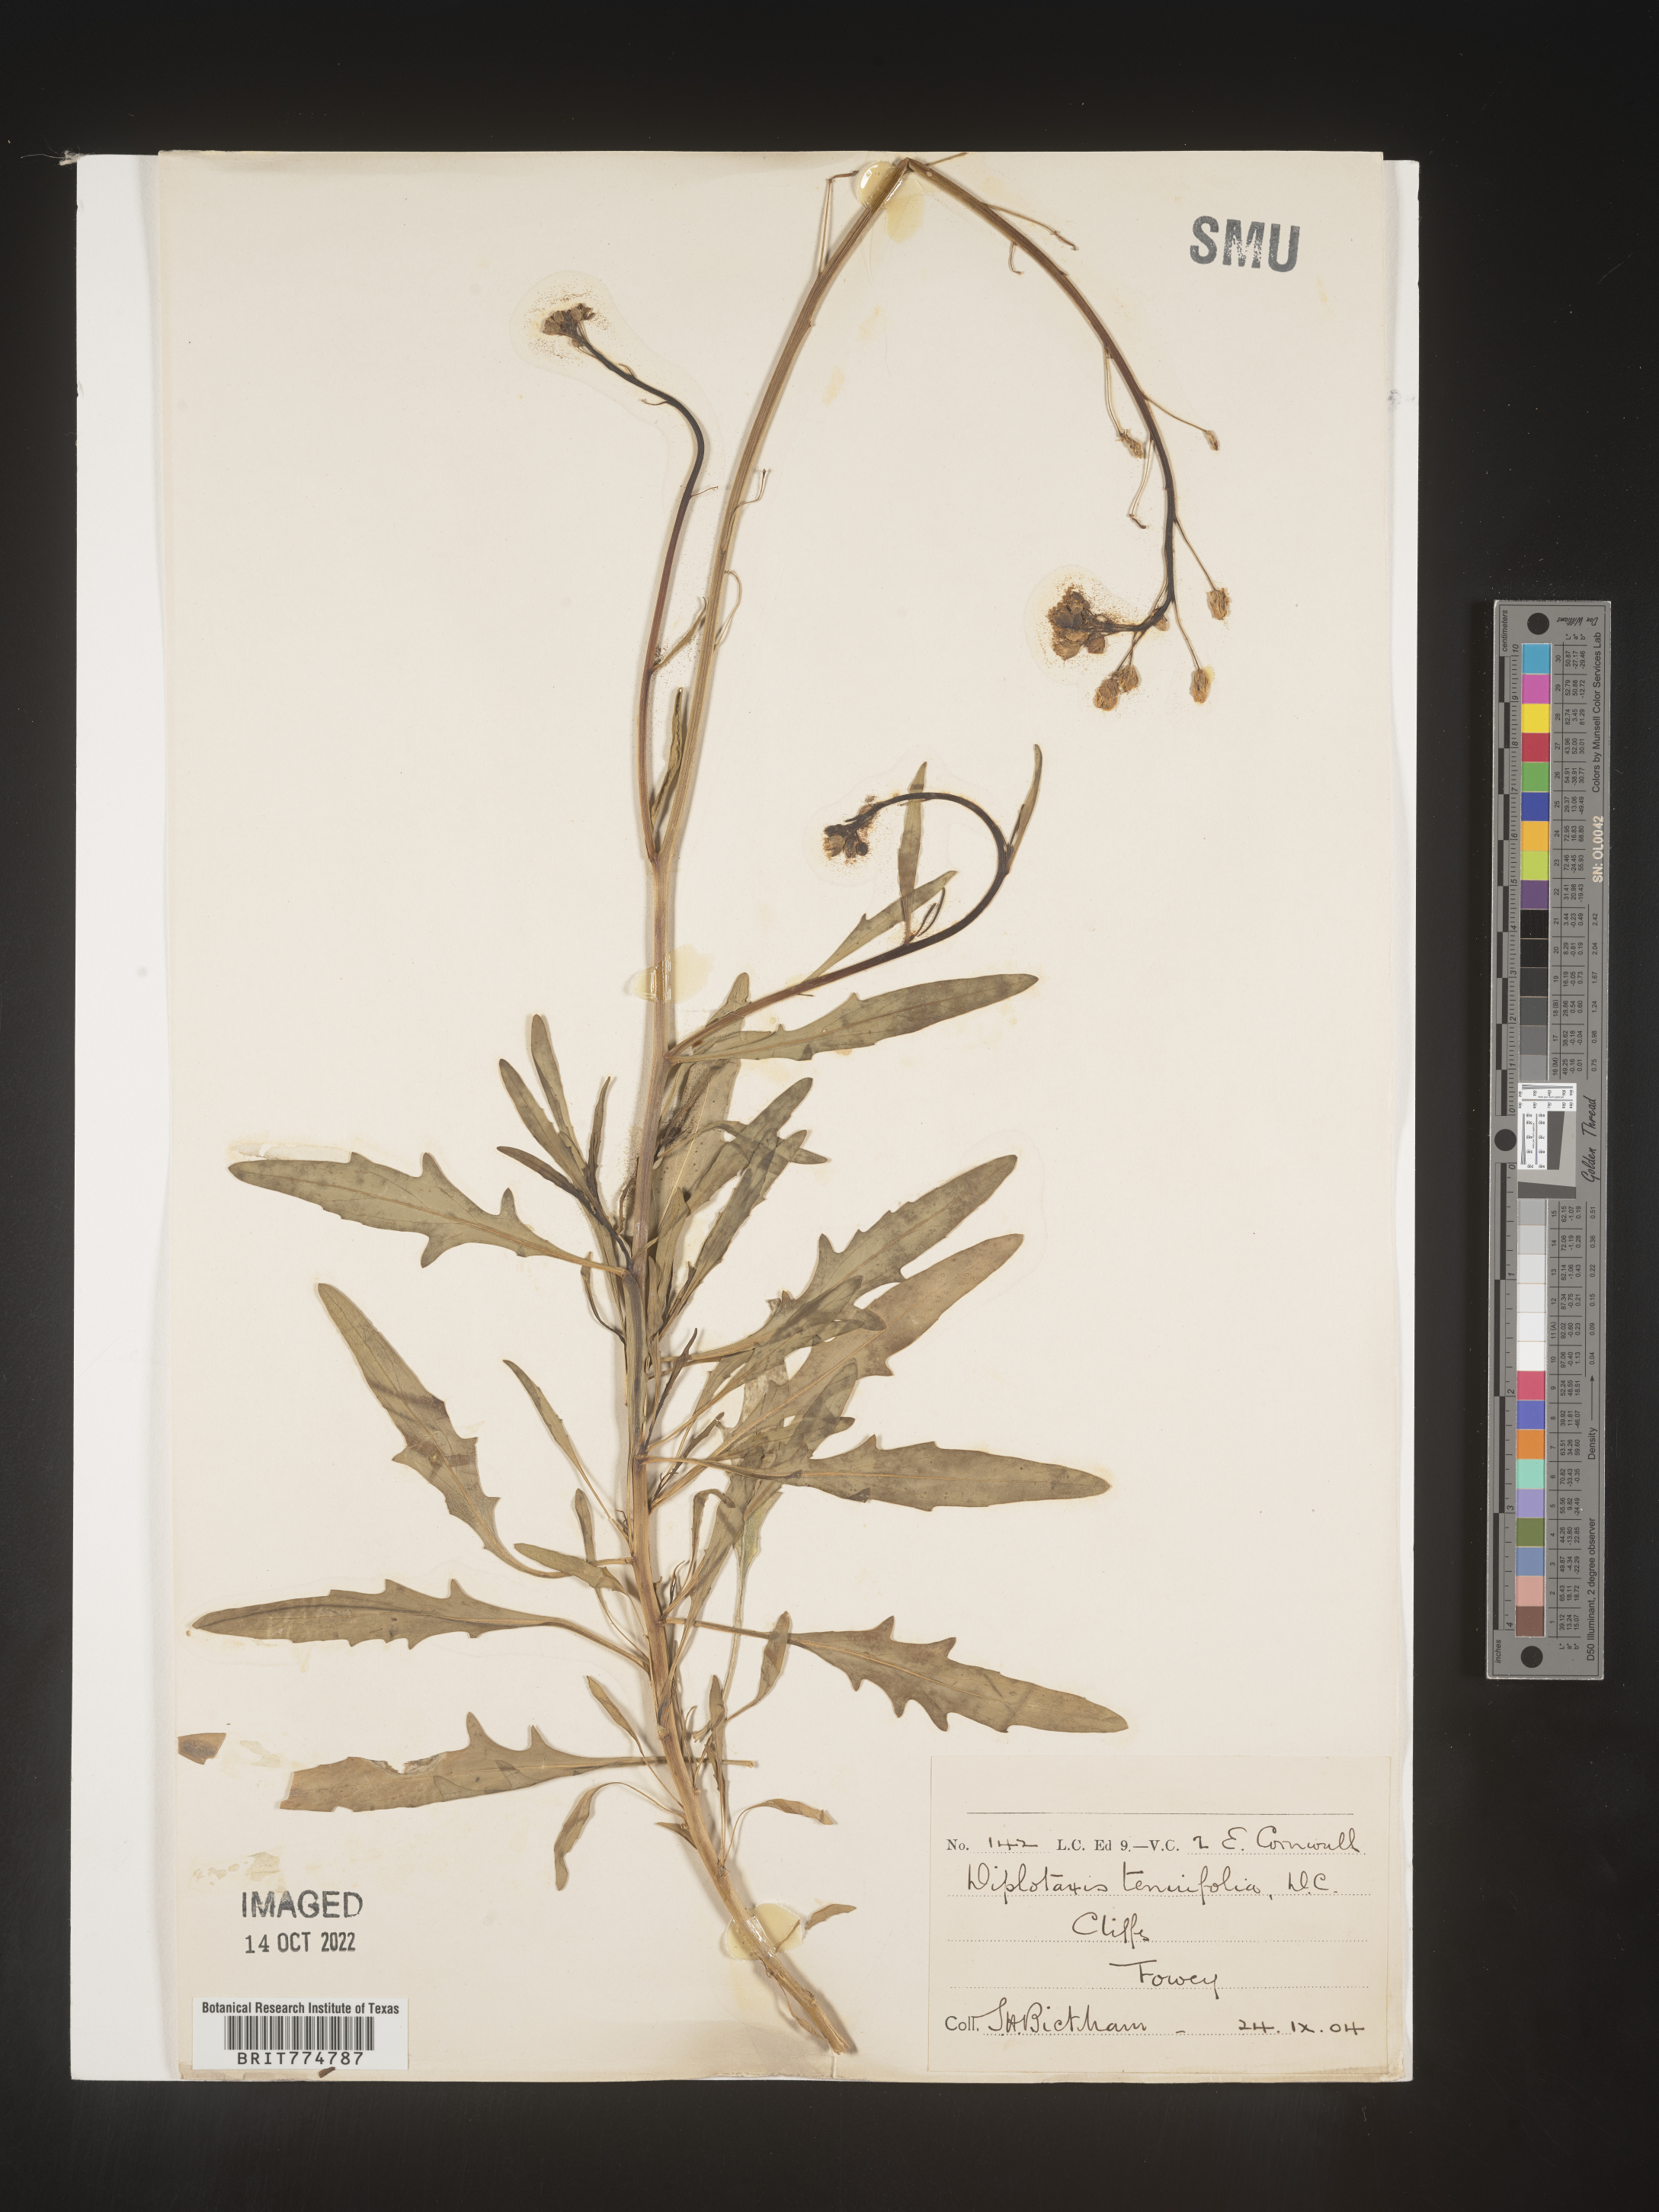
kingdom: Plantae
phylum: Tracheophyta
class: Magnoliopsida
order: Brassicales
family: Brassicaceae
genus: Diplotaxis
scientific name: Diplotaxis
